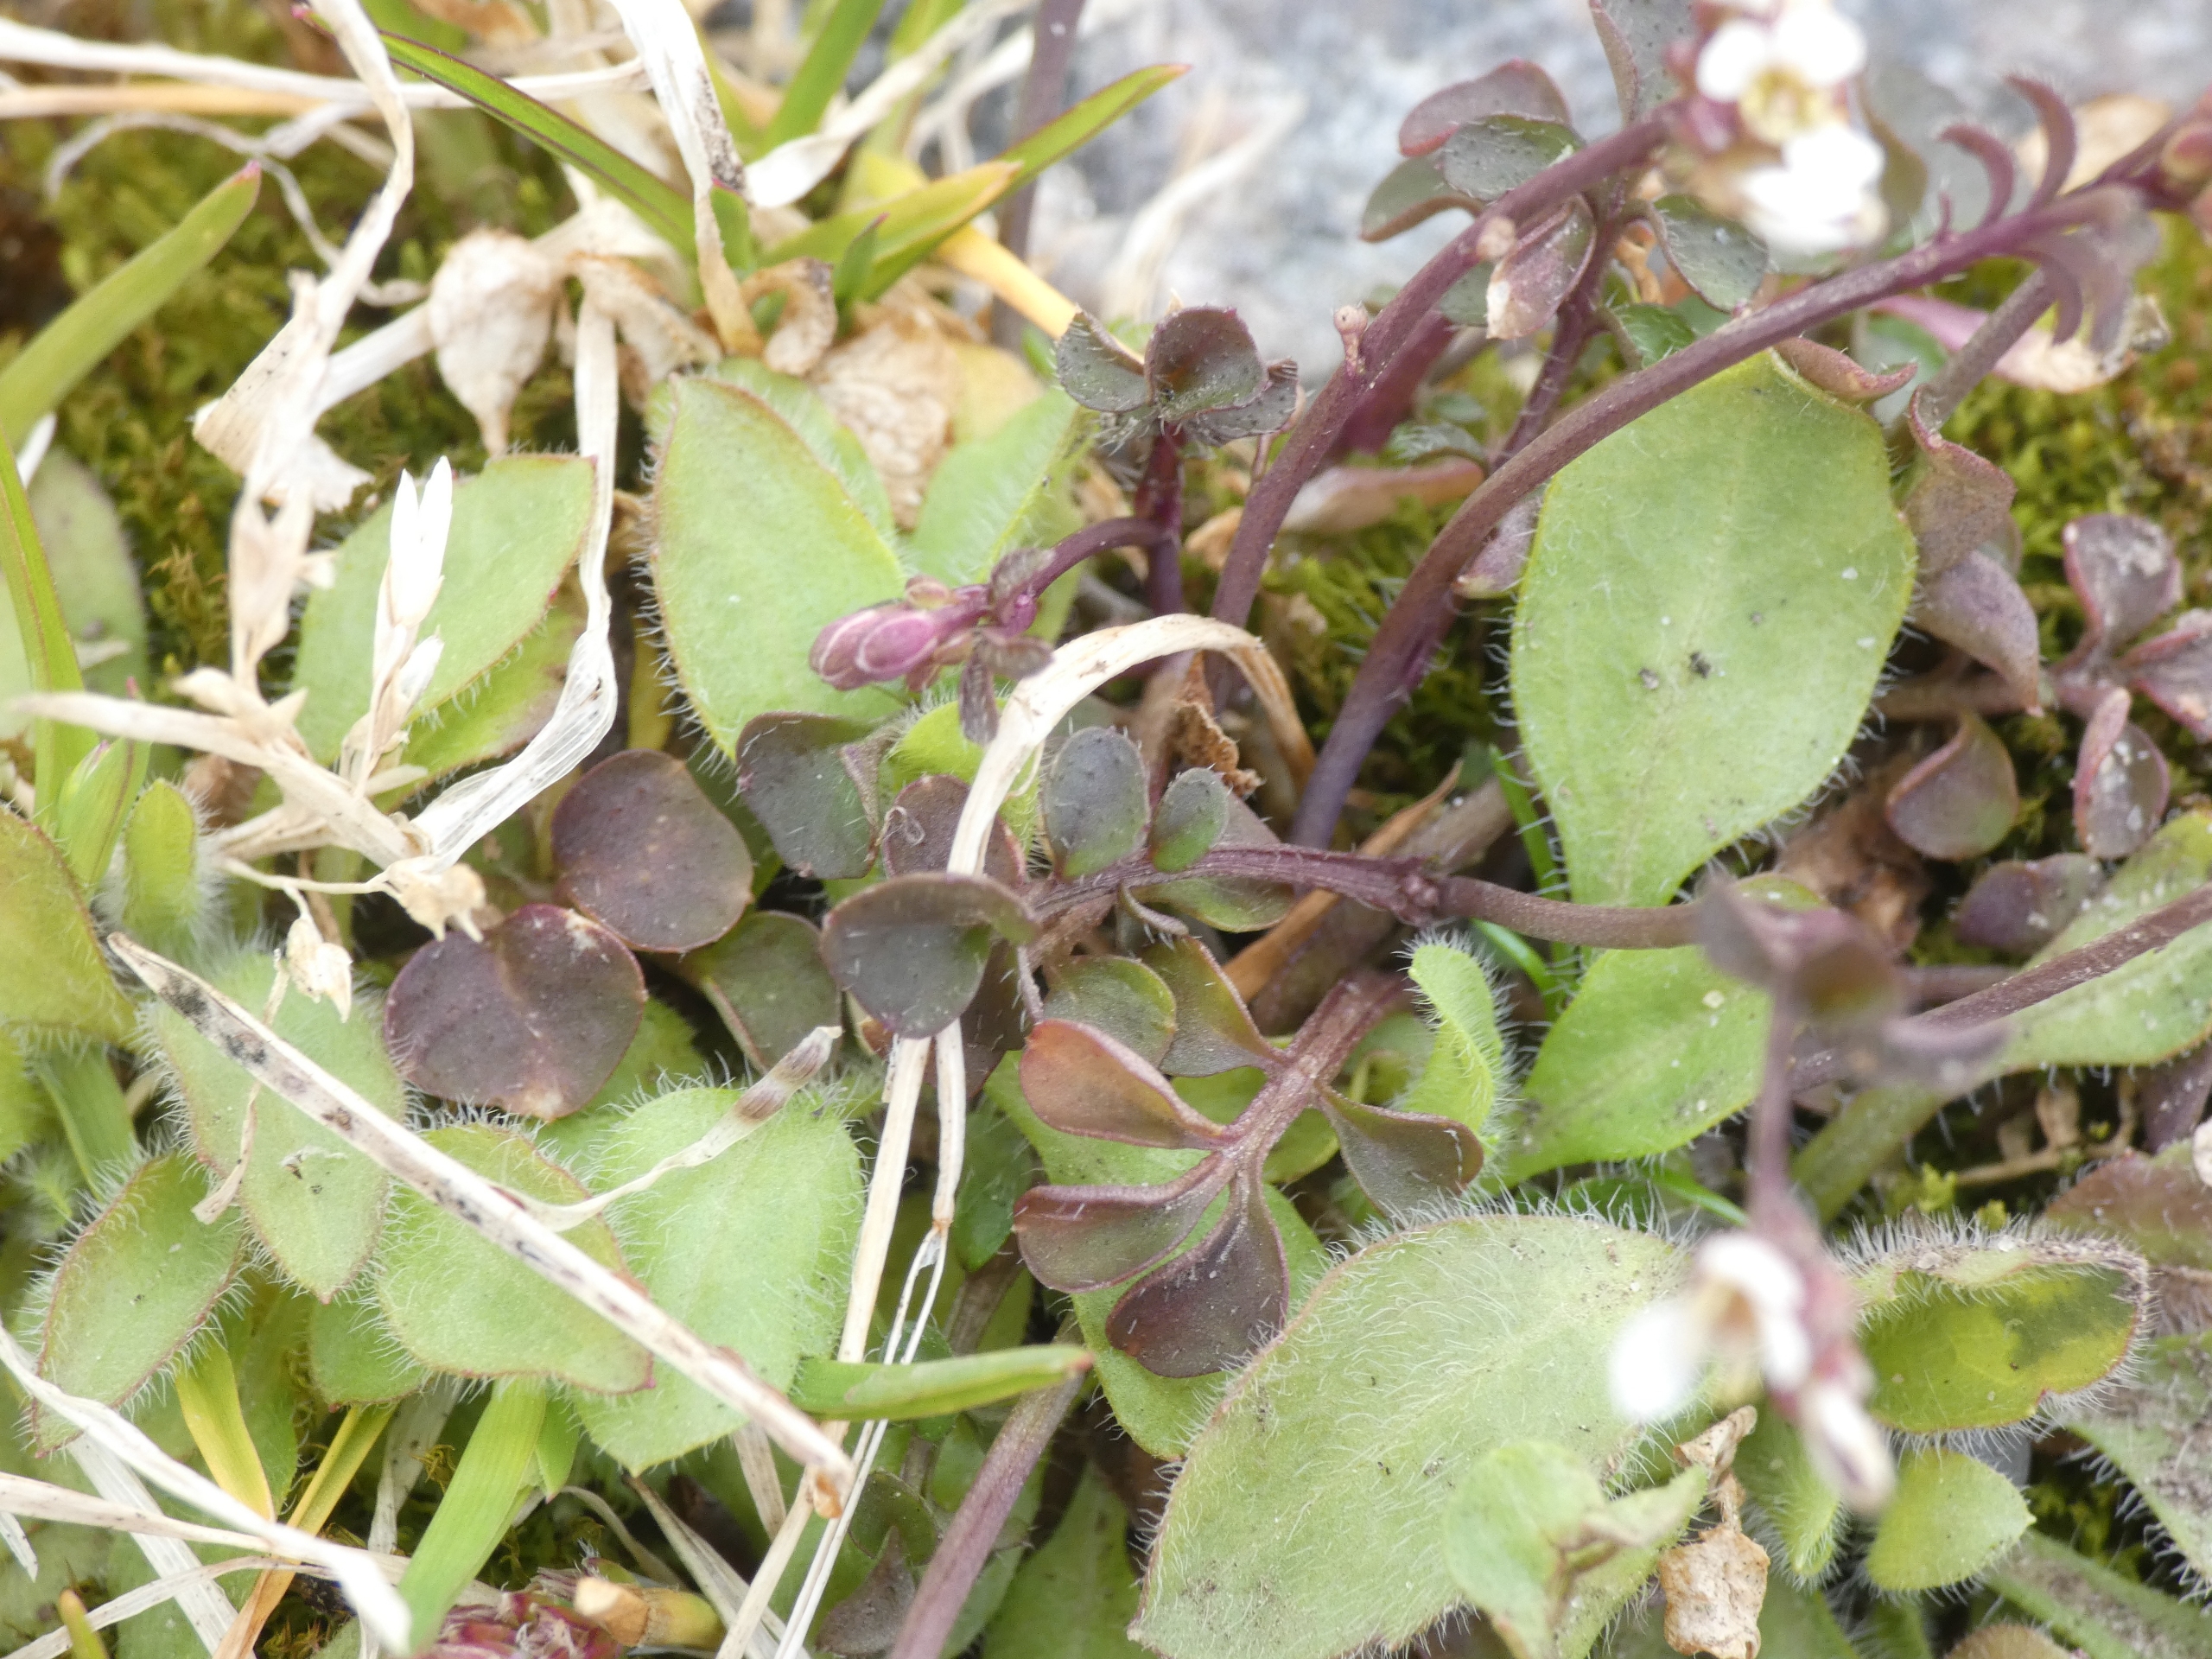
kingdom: Plantae
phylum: Tracheophyta
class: Magnoliopsida
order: Brassicales
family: Brassicaceae
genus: Cardamine
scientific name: Cardamine hirsuta
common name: Roset-springklap
